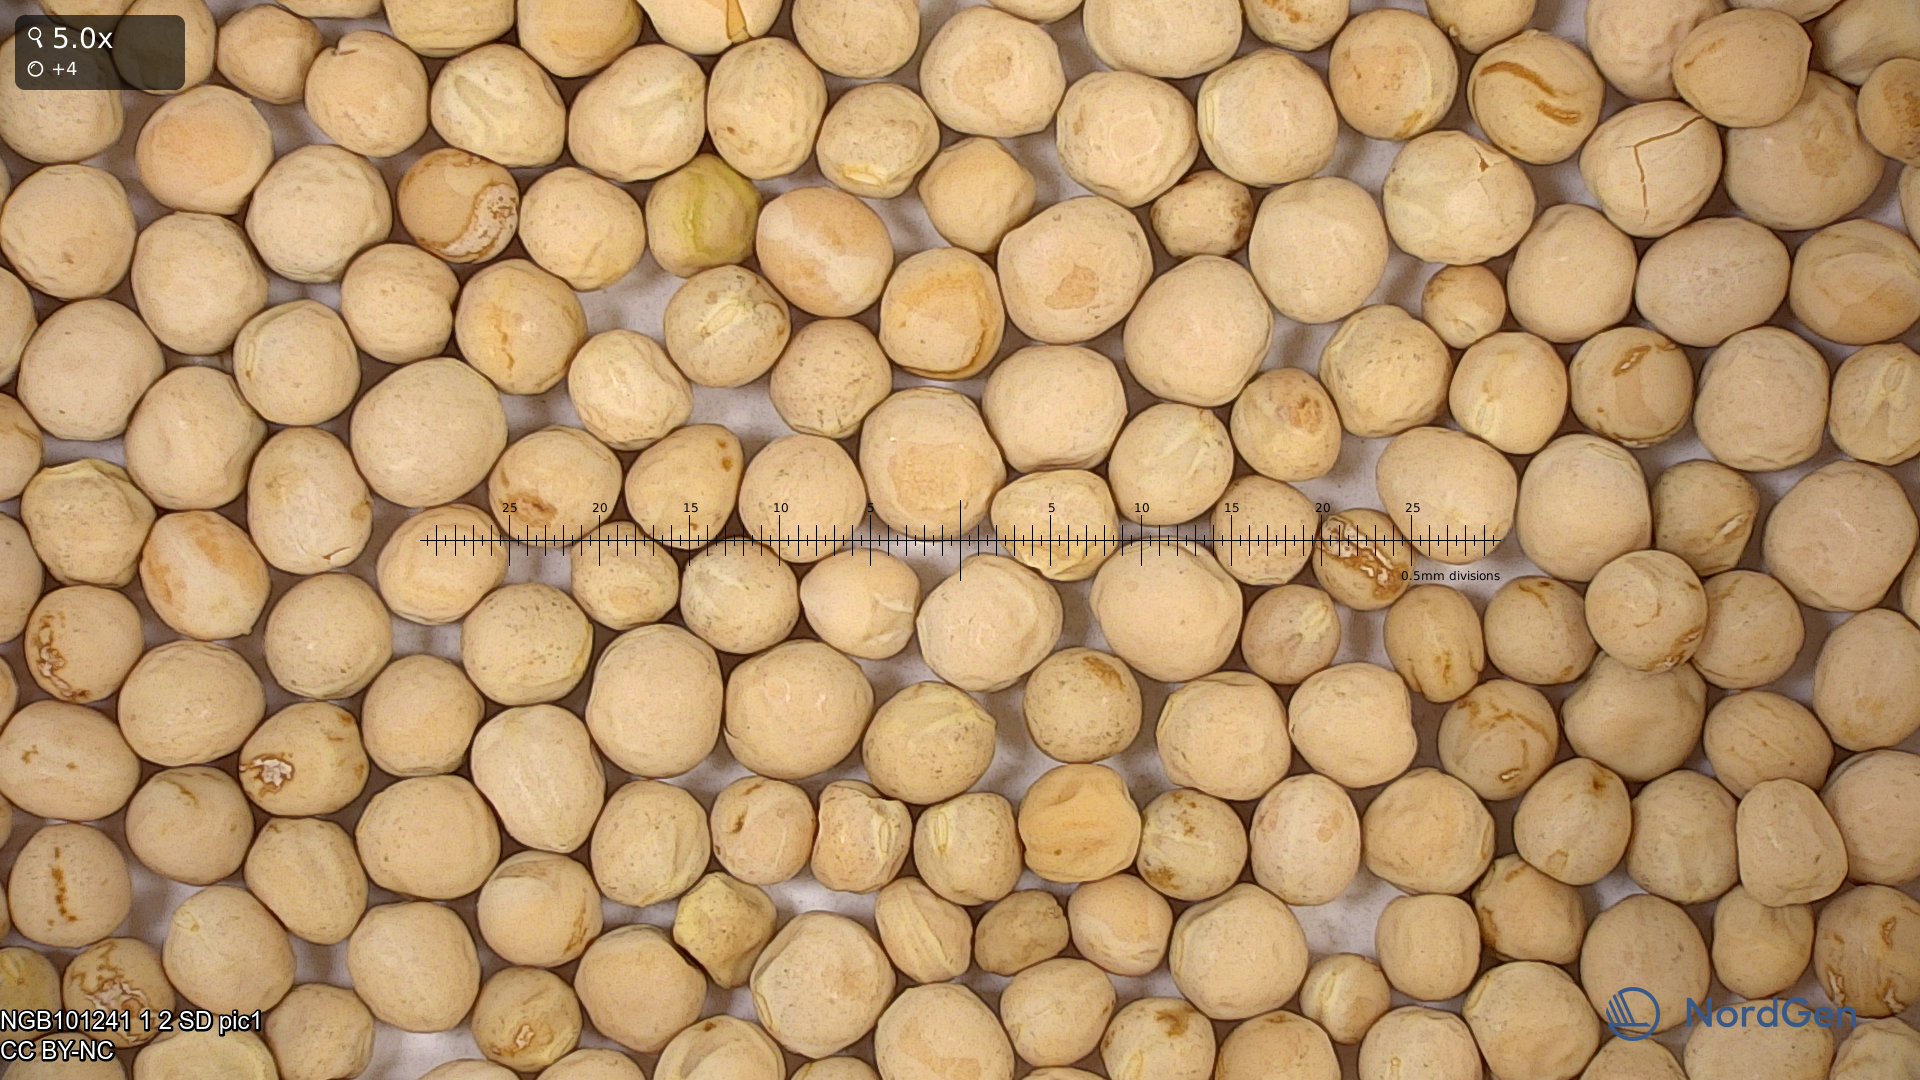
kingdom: Plantae
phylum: Tracheophyta
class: Magnoliopsida
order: Fabales
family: Fabaceae
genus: Lathyrus
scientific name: Lathyrus oleraceus
